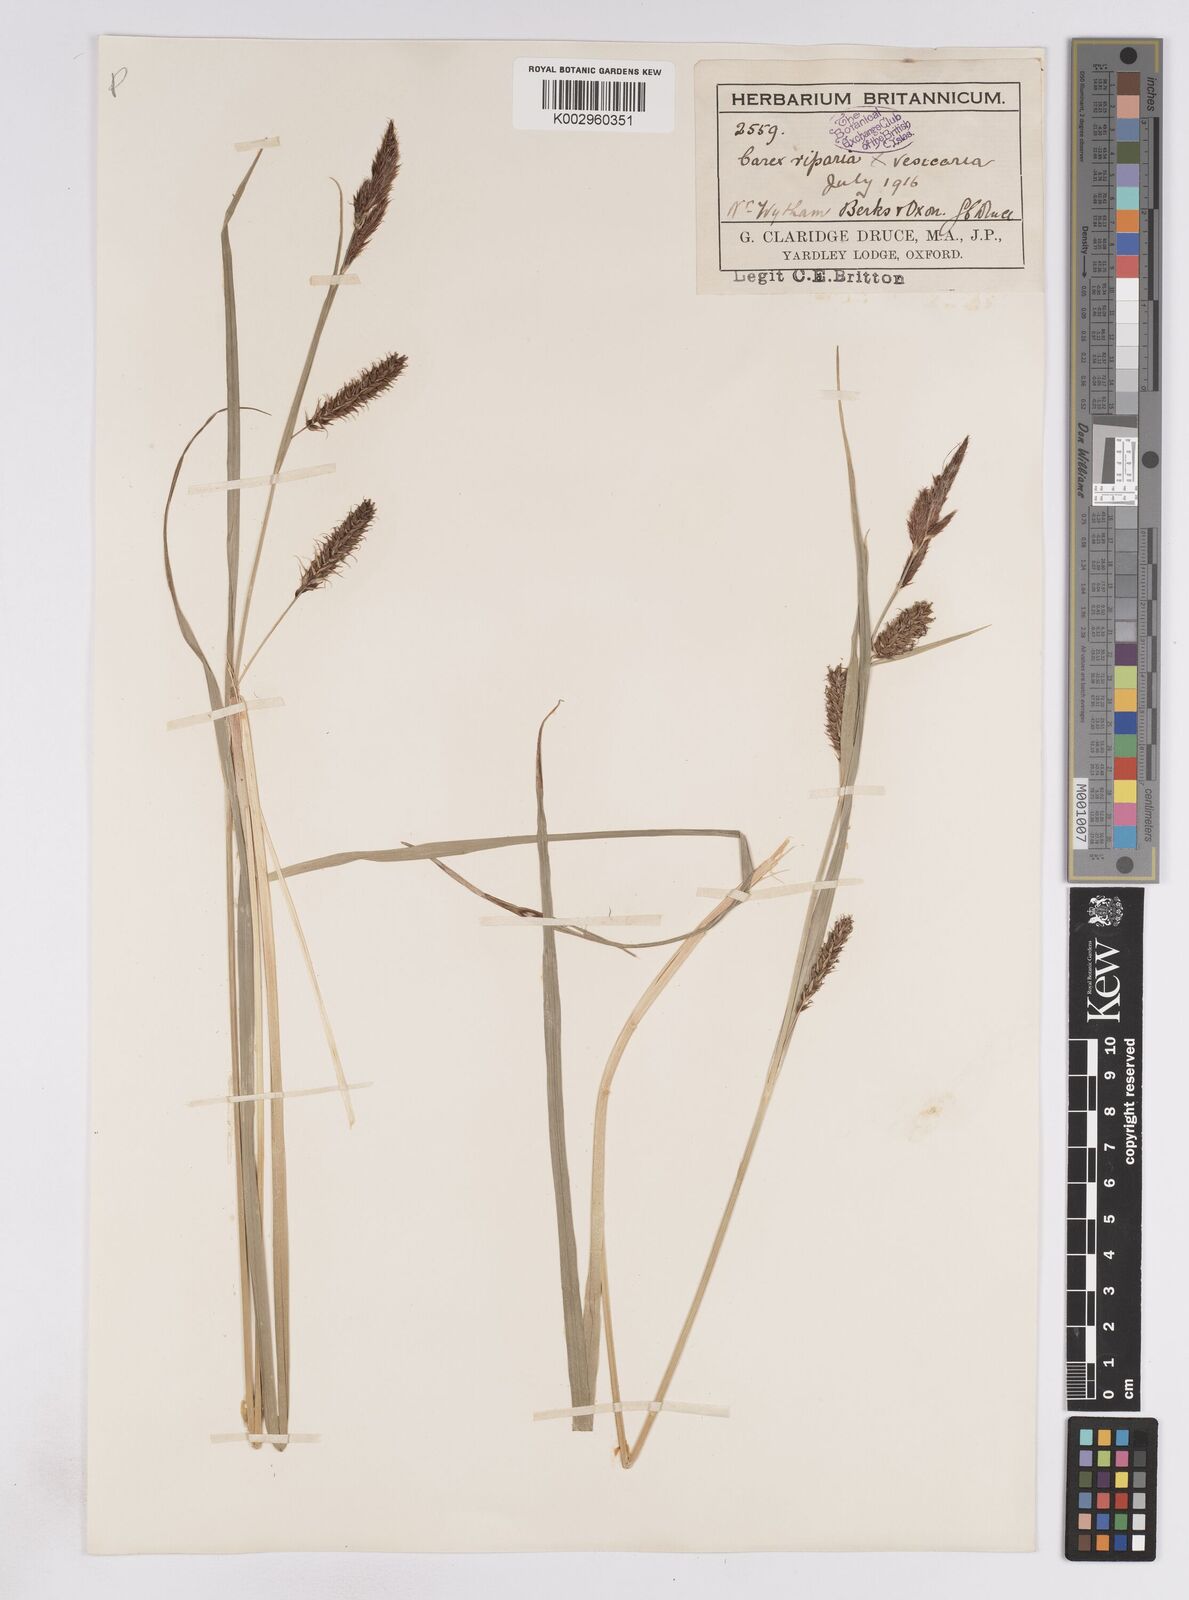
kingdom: Plantae
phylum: Tracheophyta
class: Liliopsida
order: Poales
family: Cyperaceae
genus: Carex
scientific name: Carex vesicaria
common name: Bladder-sedge
